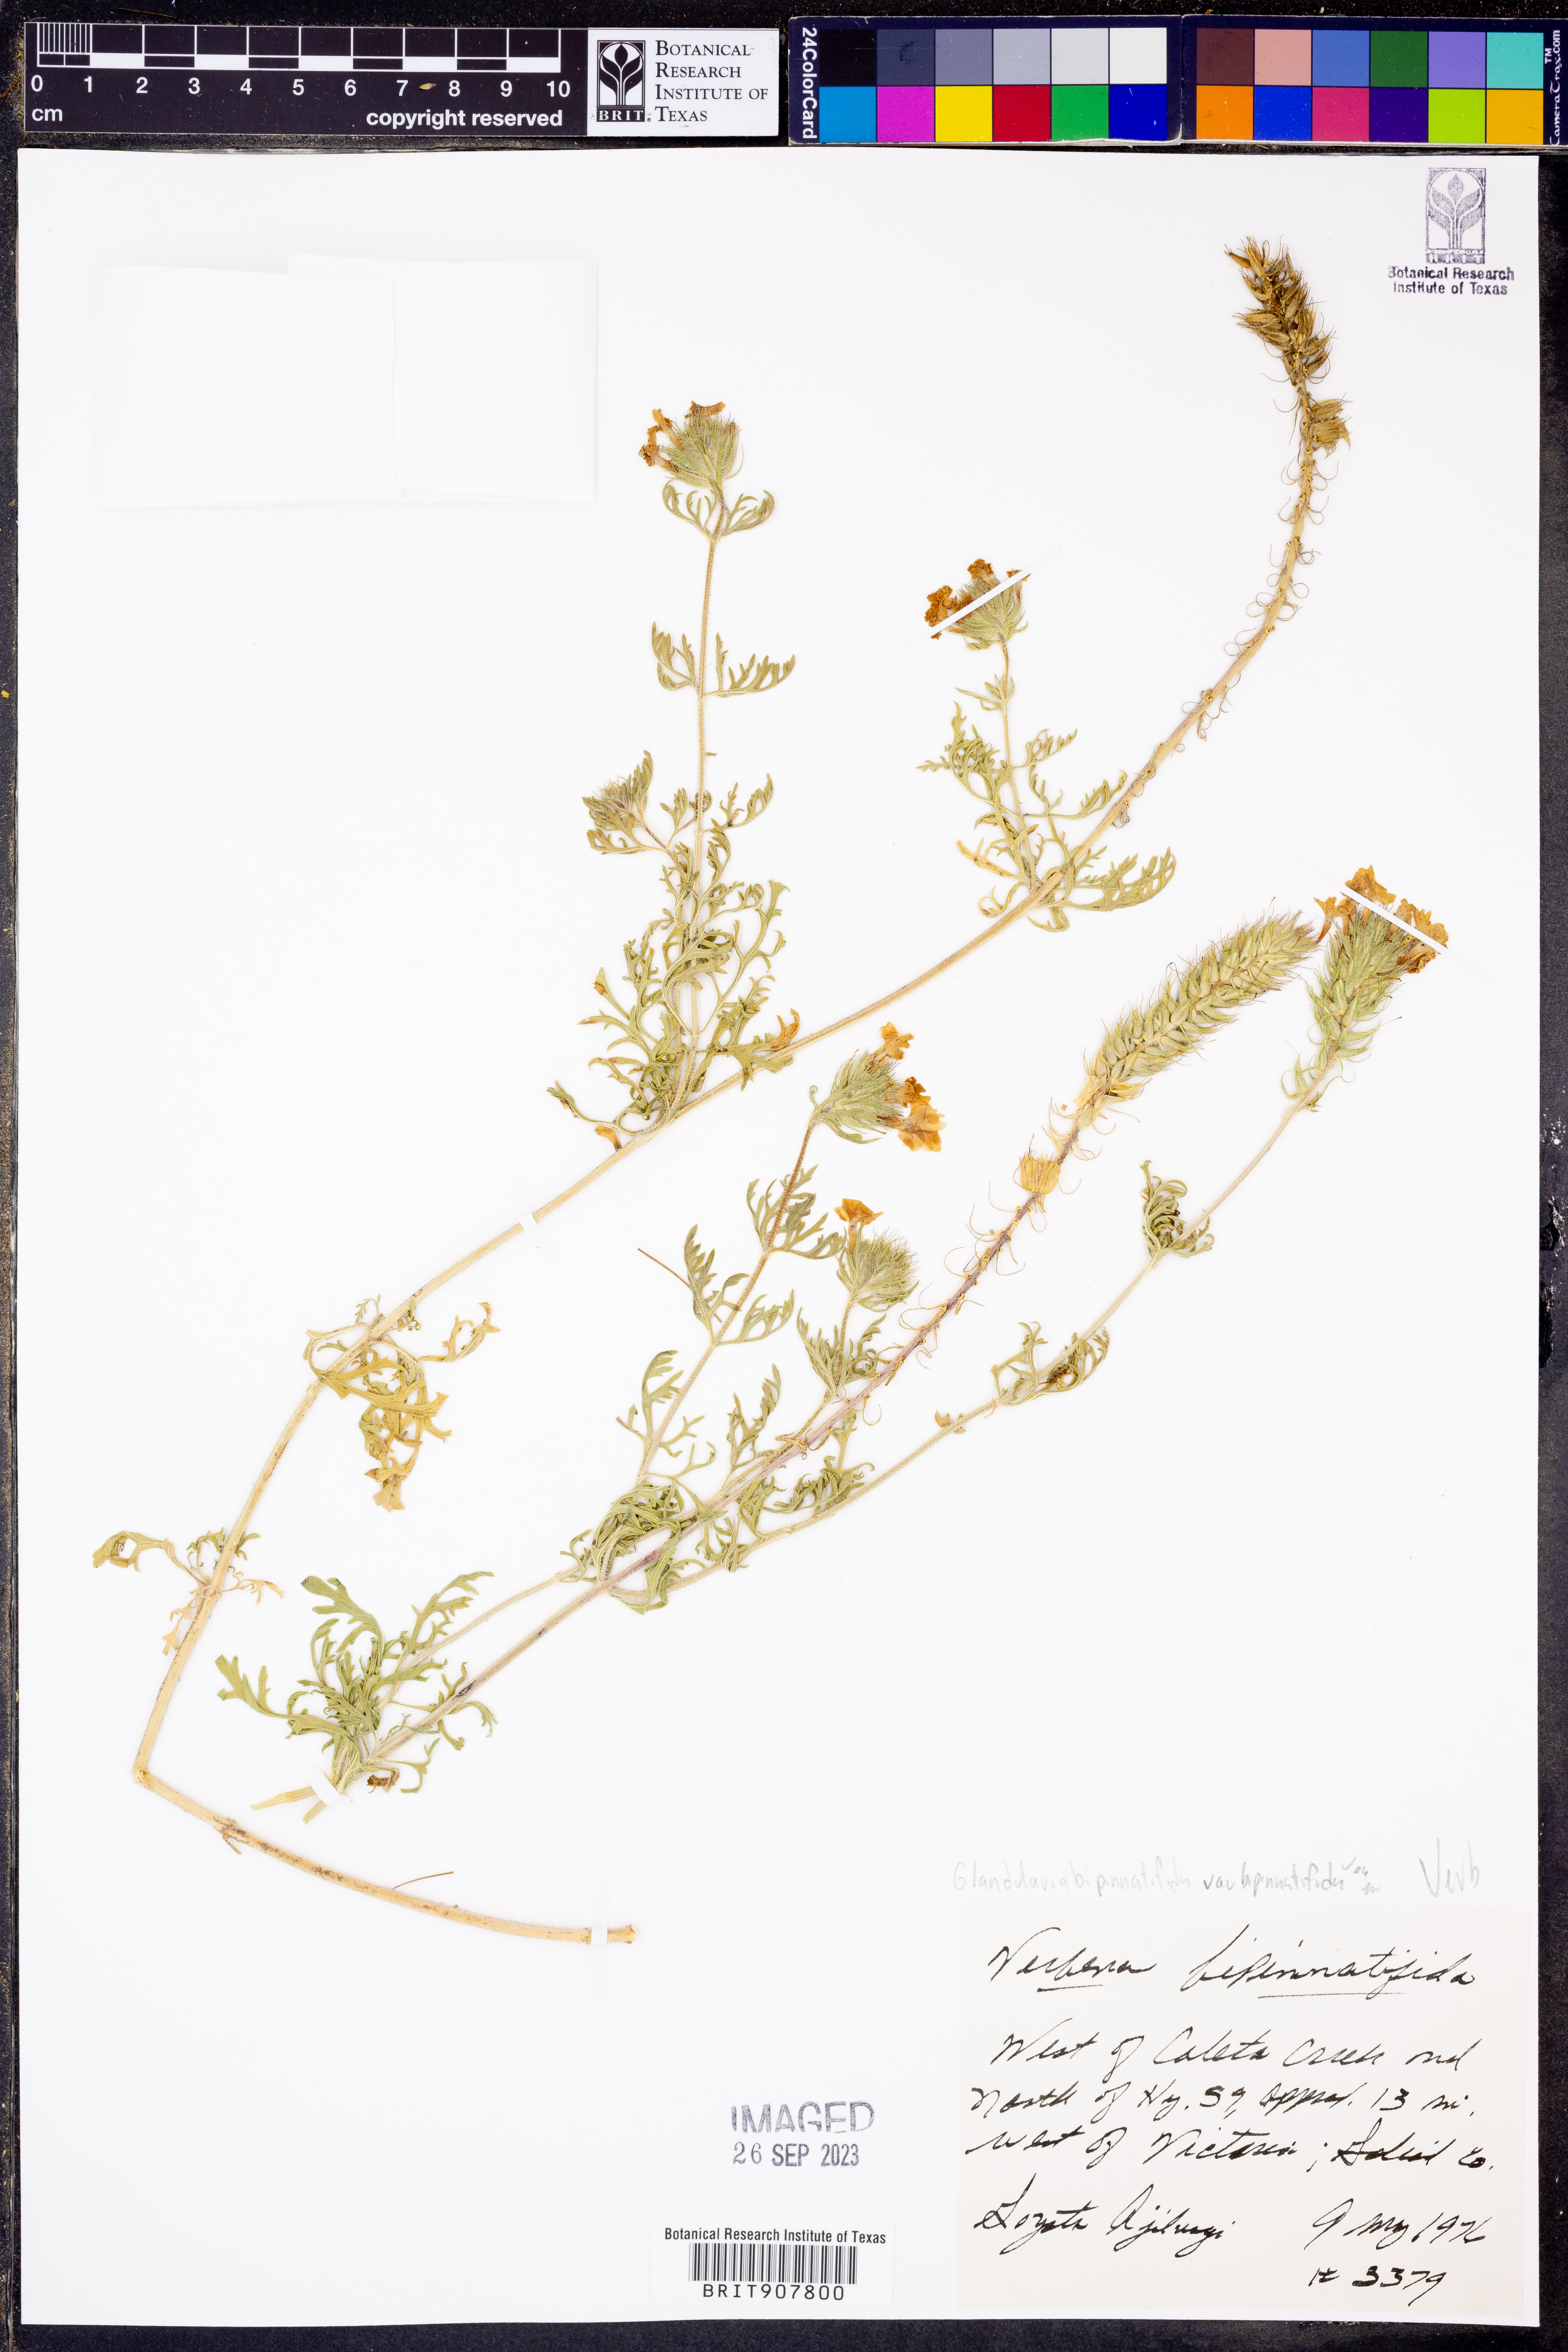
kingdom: Plantae
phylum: Tracheophyta
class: Magnoliopsida
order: Lamiales
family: Verbenaceae
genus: Verbena
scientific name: Verbena bipinnatifida
